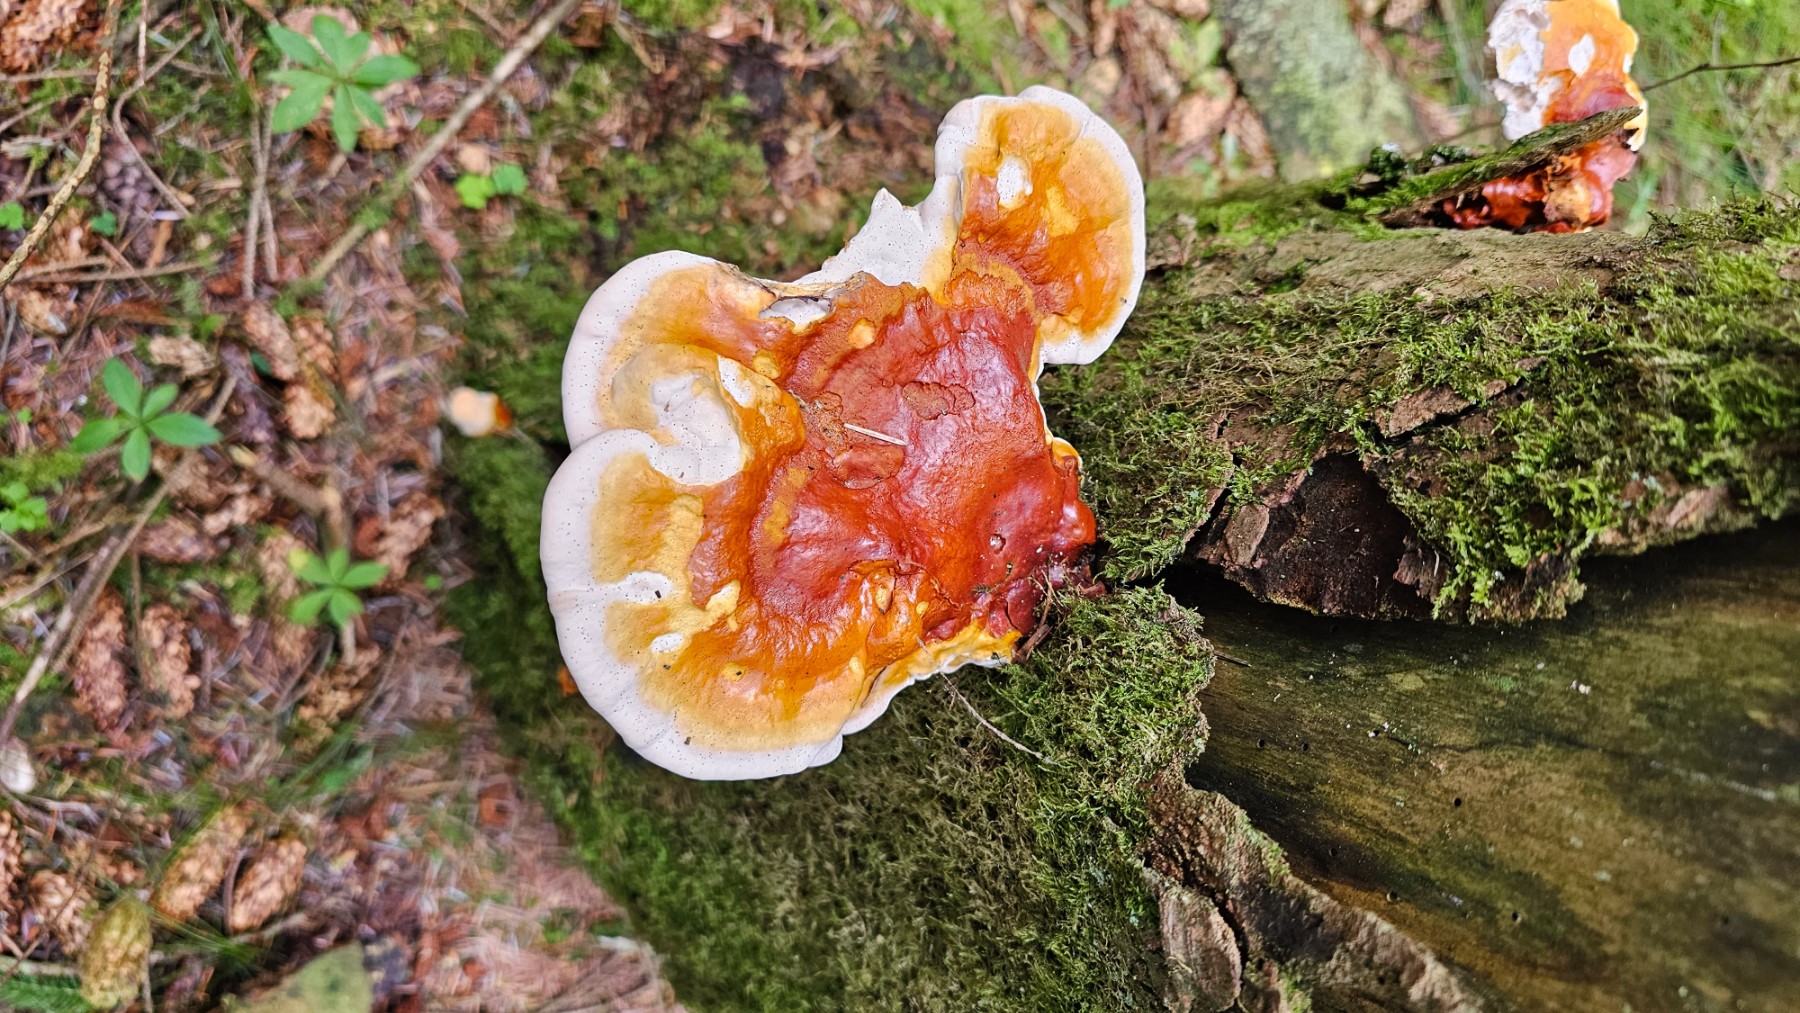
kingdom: Fungi
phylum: Basidiomycota
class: Agaricomycetes
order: Polyporales
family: Polyporaceae
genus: Ganoderma
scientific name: Ganoderma lucidum
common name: skinnende lakporesvamp
